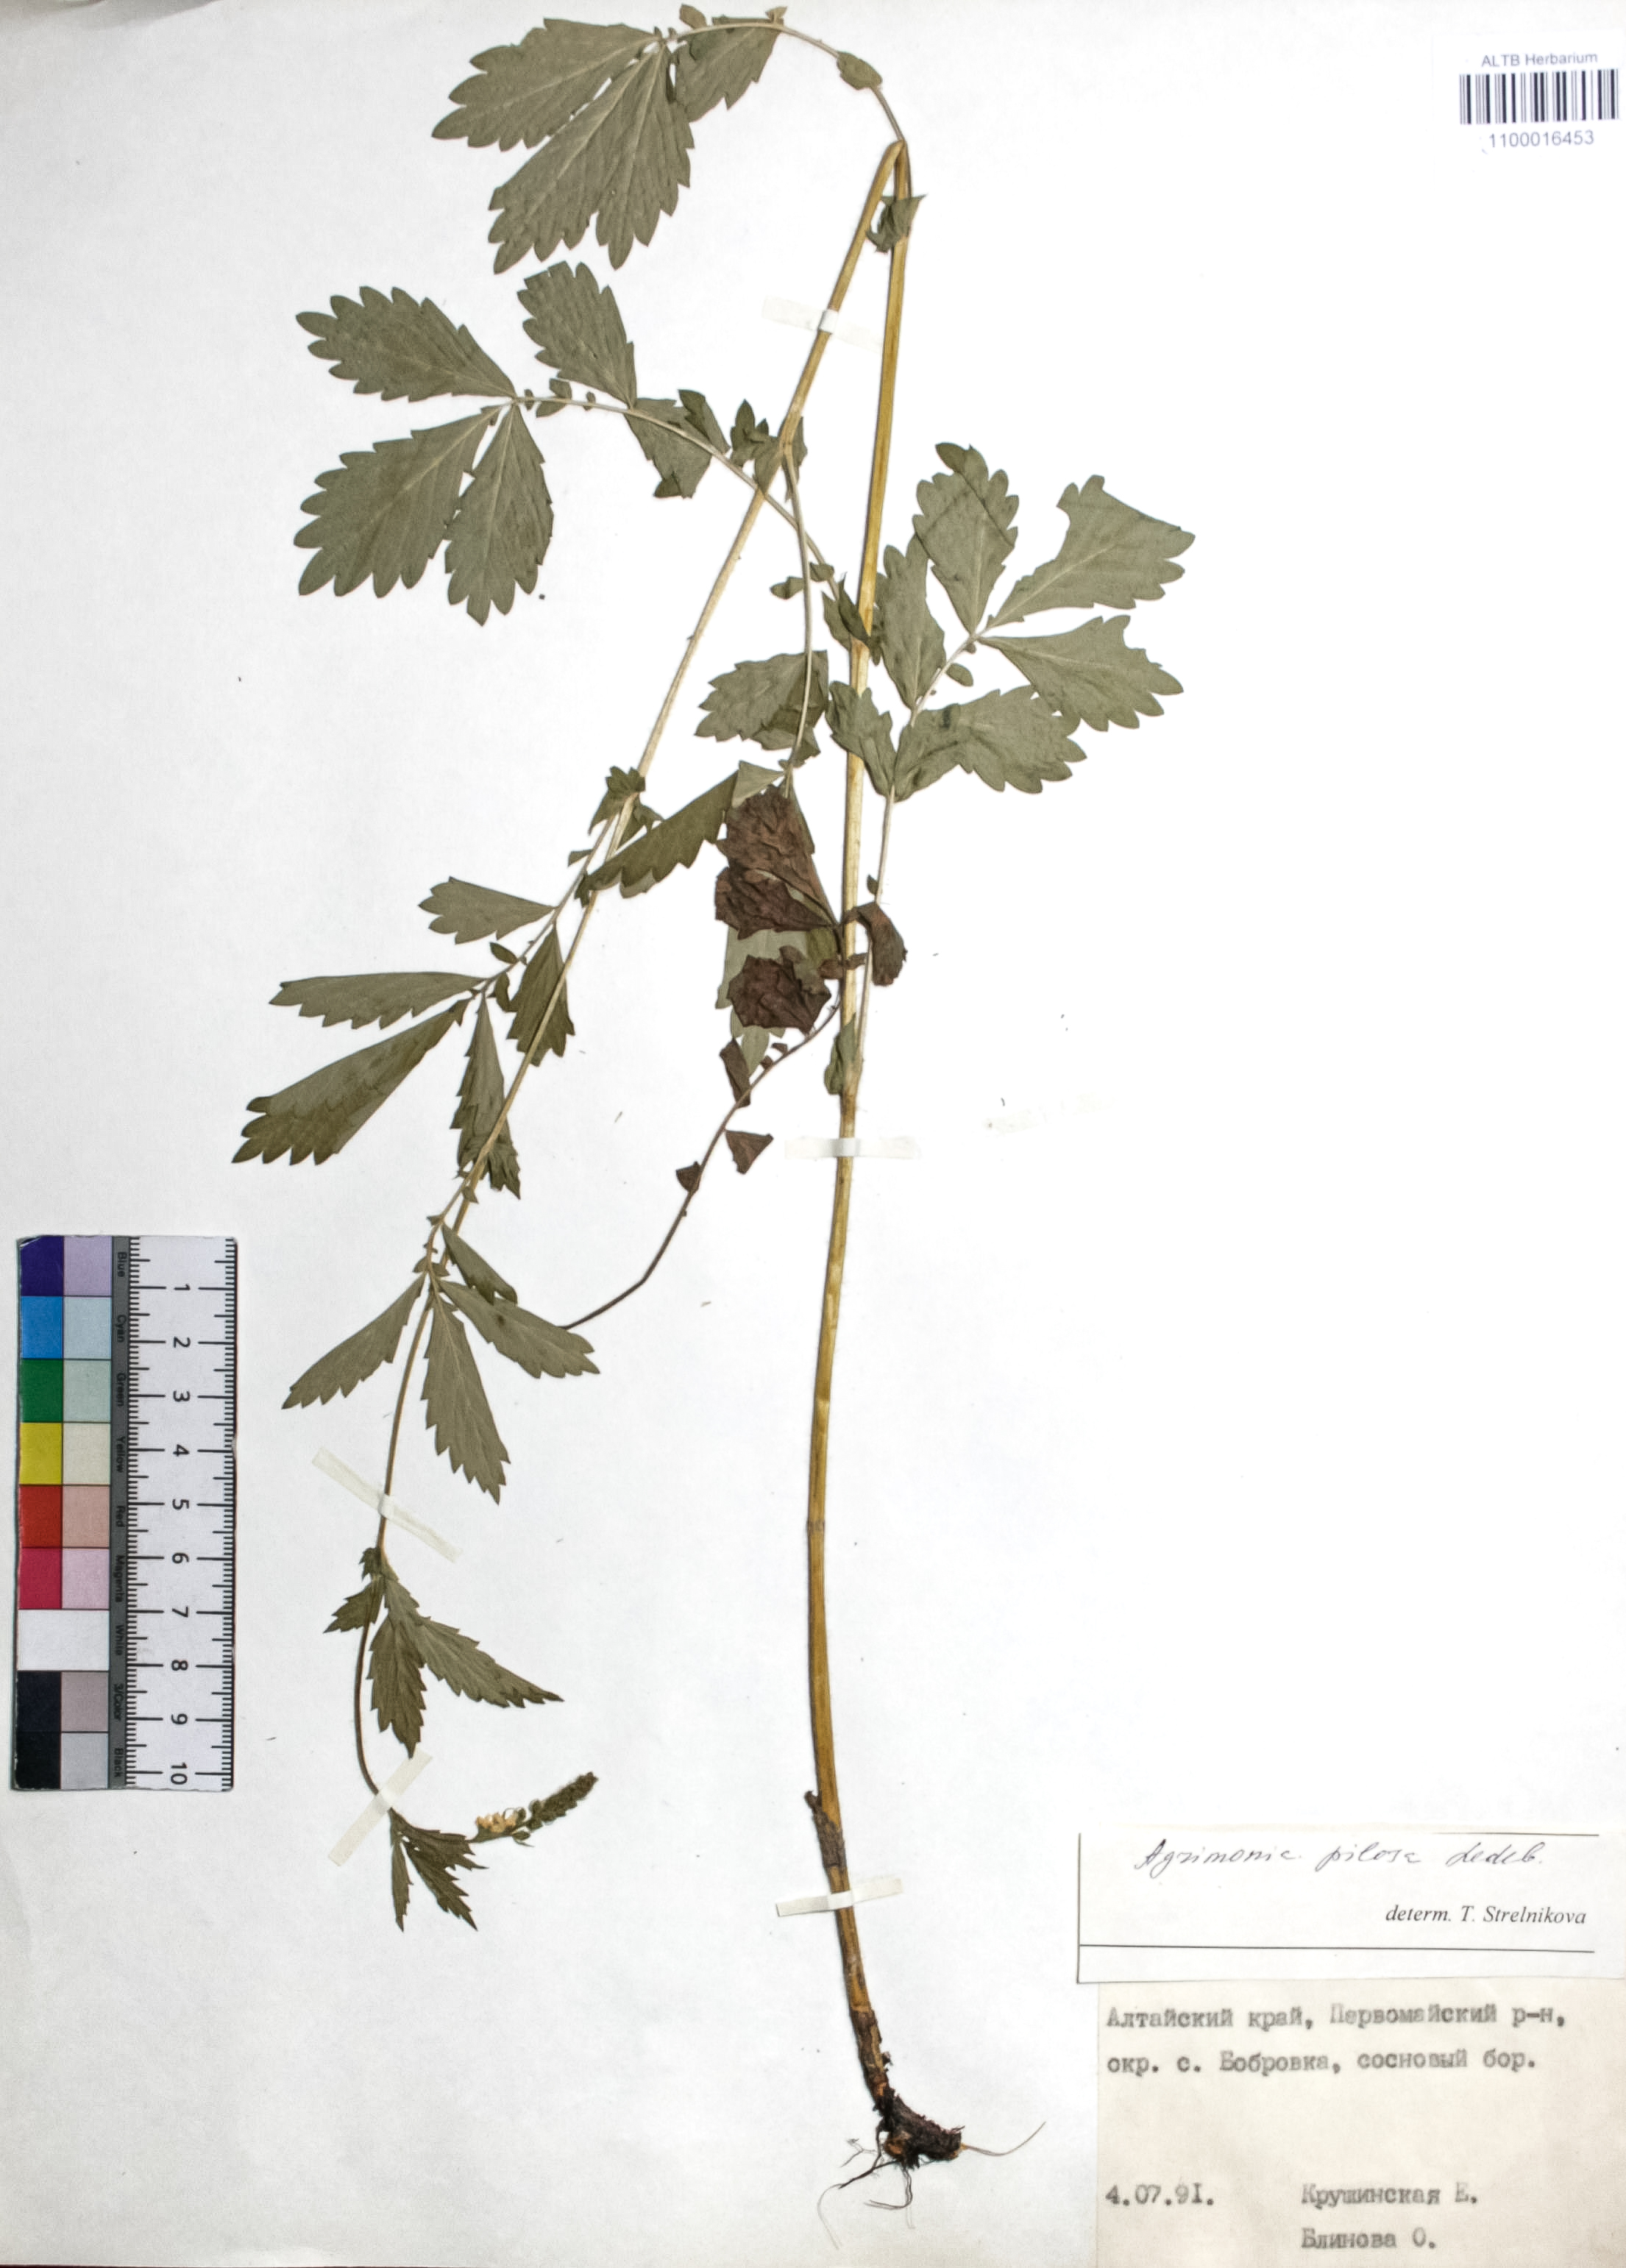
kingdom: Plantae
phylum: Tracheophyta
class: Magnoliopsida
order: Rosales
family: Rosaceae
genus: Agrimonia
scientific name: Agrimonia pilosa
